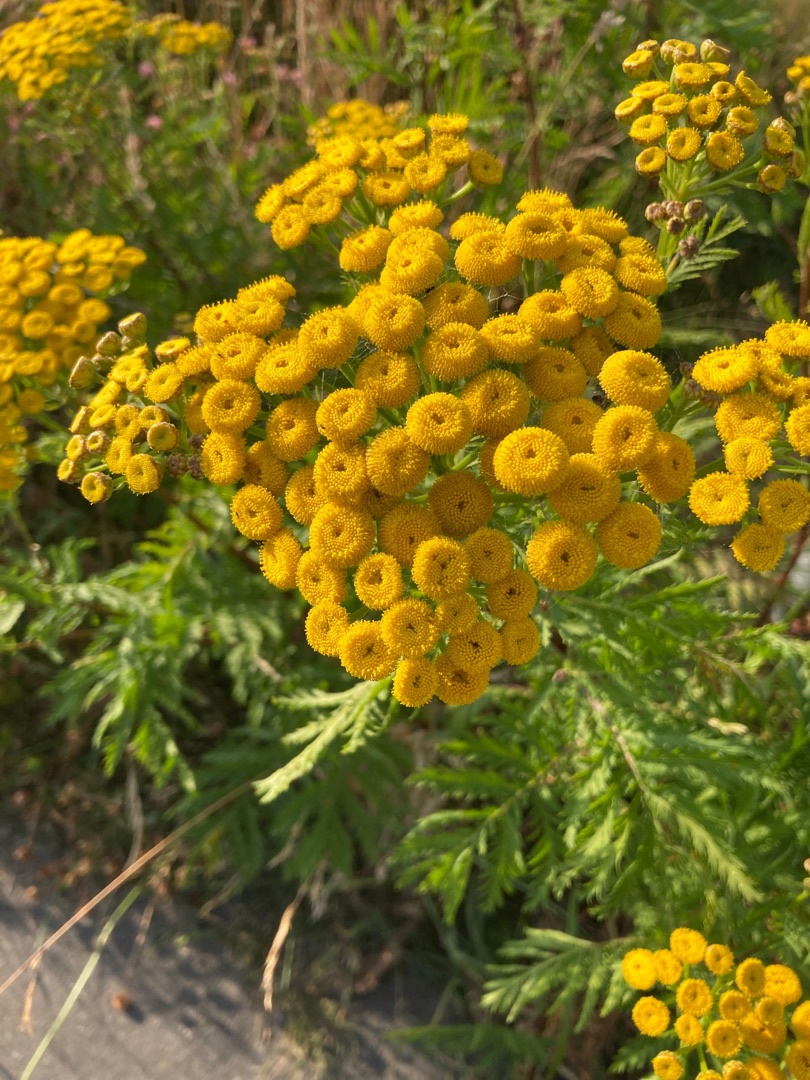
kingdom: Plantae
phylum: Tracheophyta
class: Magnoliopsida
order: Asterales
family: Asteraceae
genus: Tanacetum
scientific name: Tanacetum vulgare
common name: Rejnfan
